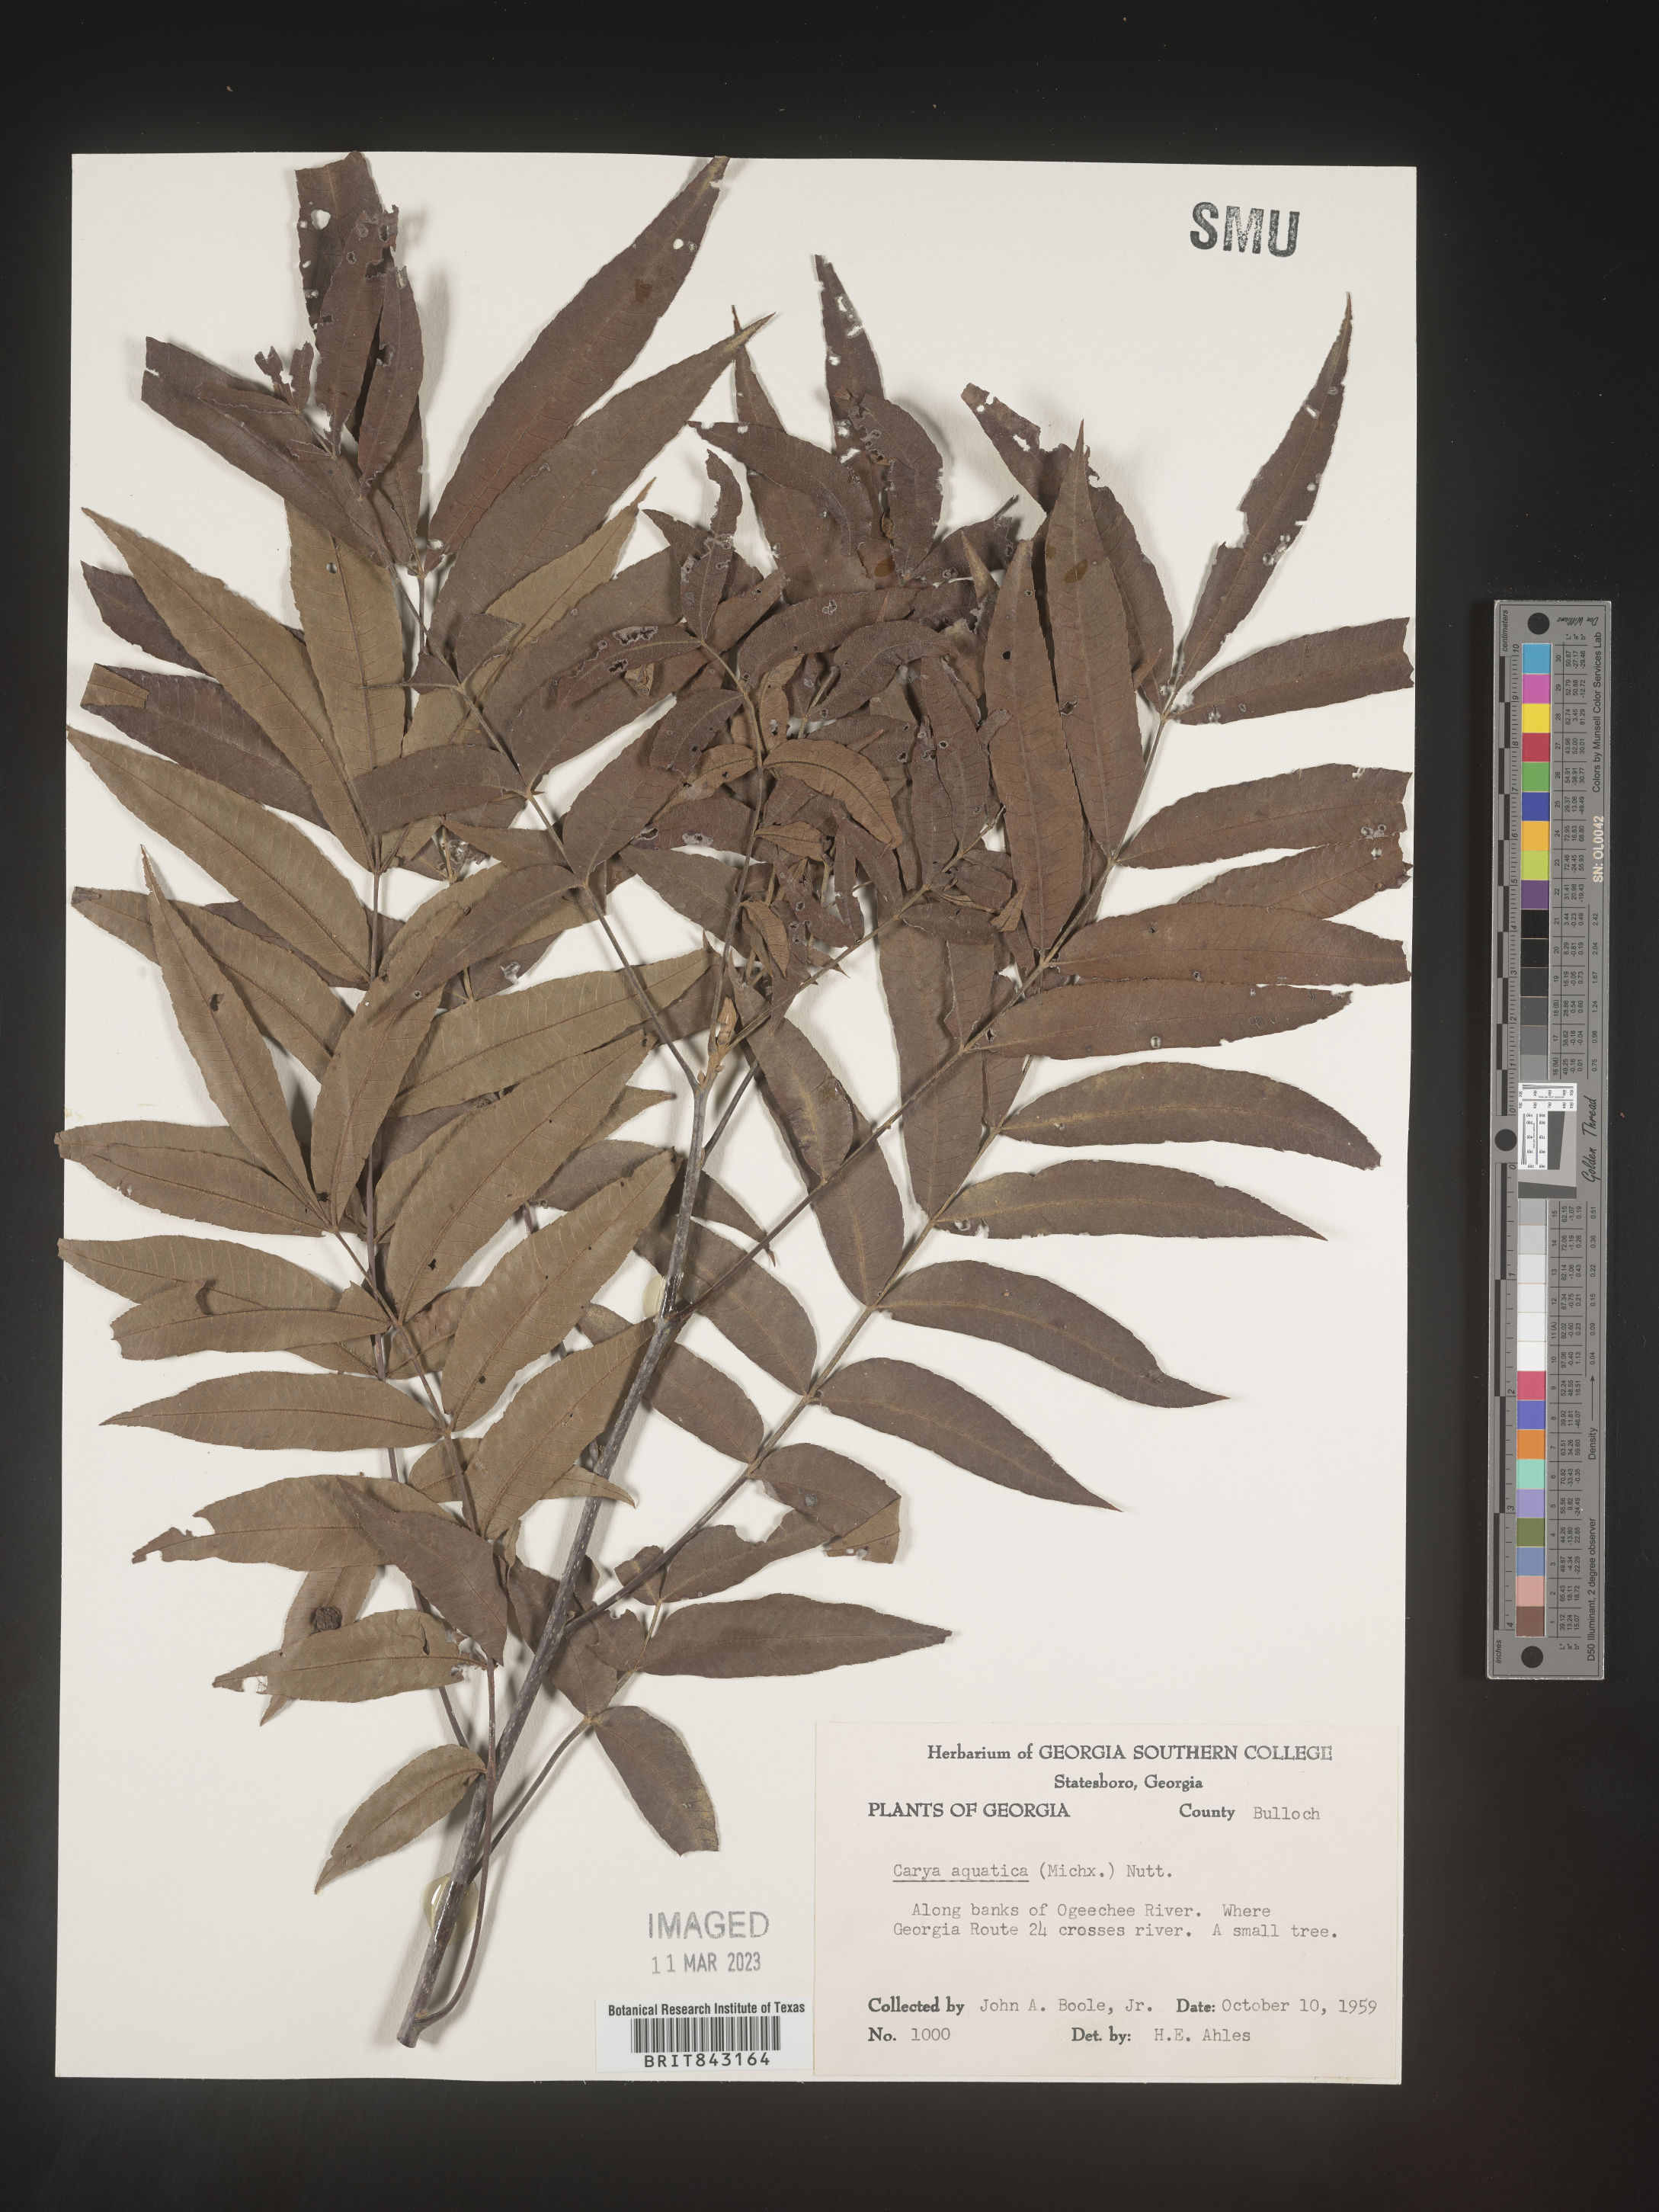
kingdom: Plantae
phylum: Tracheophyta
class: Magnoliopsida
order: Fagales
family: Juglandaceae
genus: Carya
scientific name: Carya aquatica
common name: Water hickory
